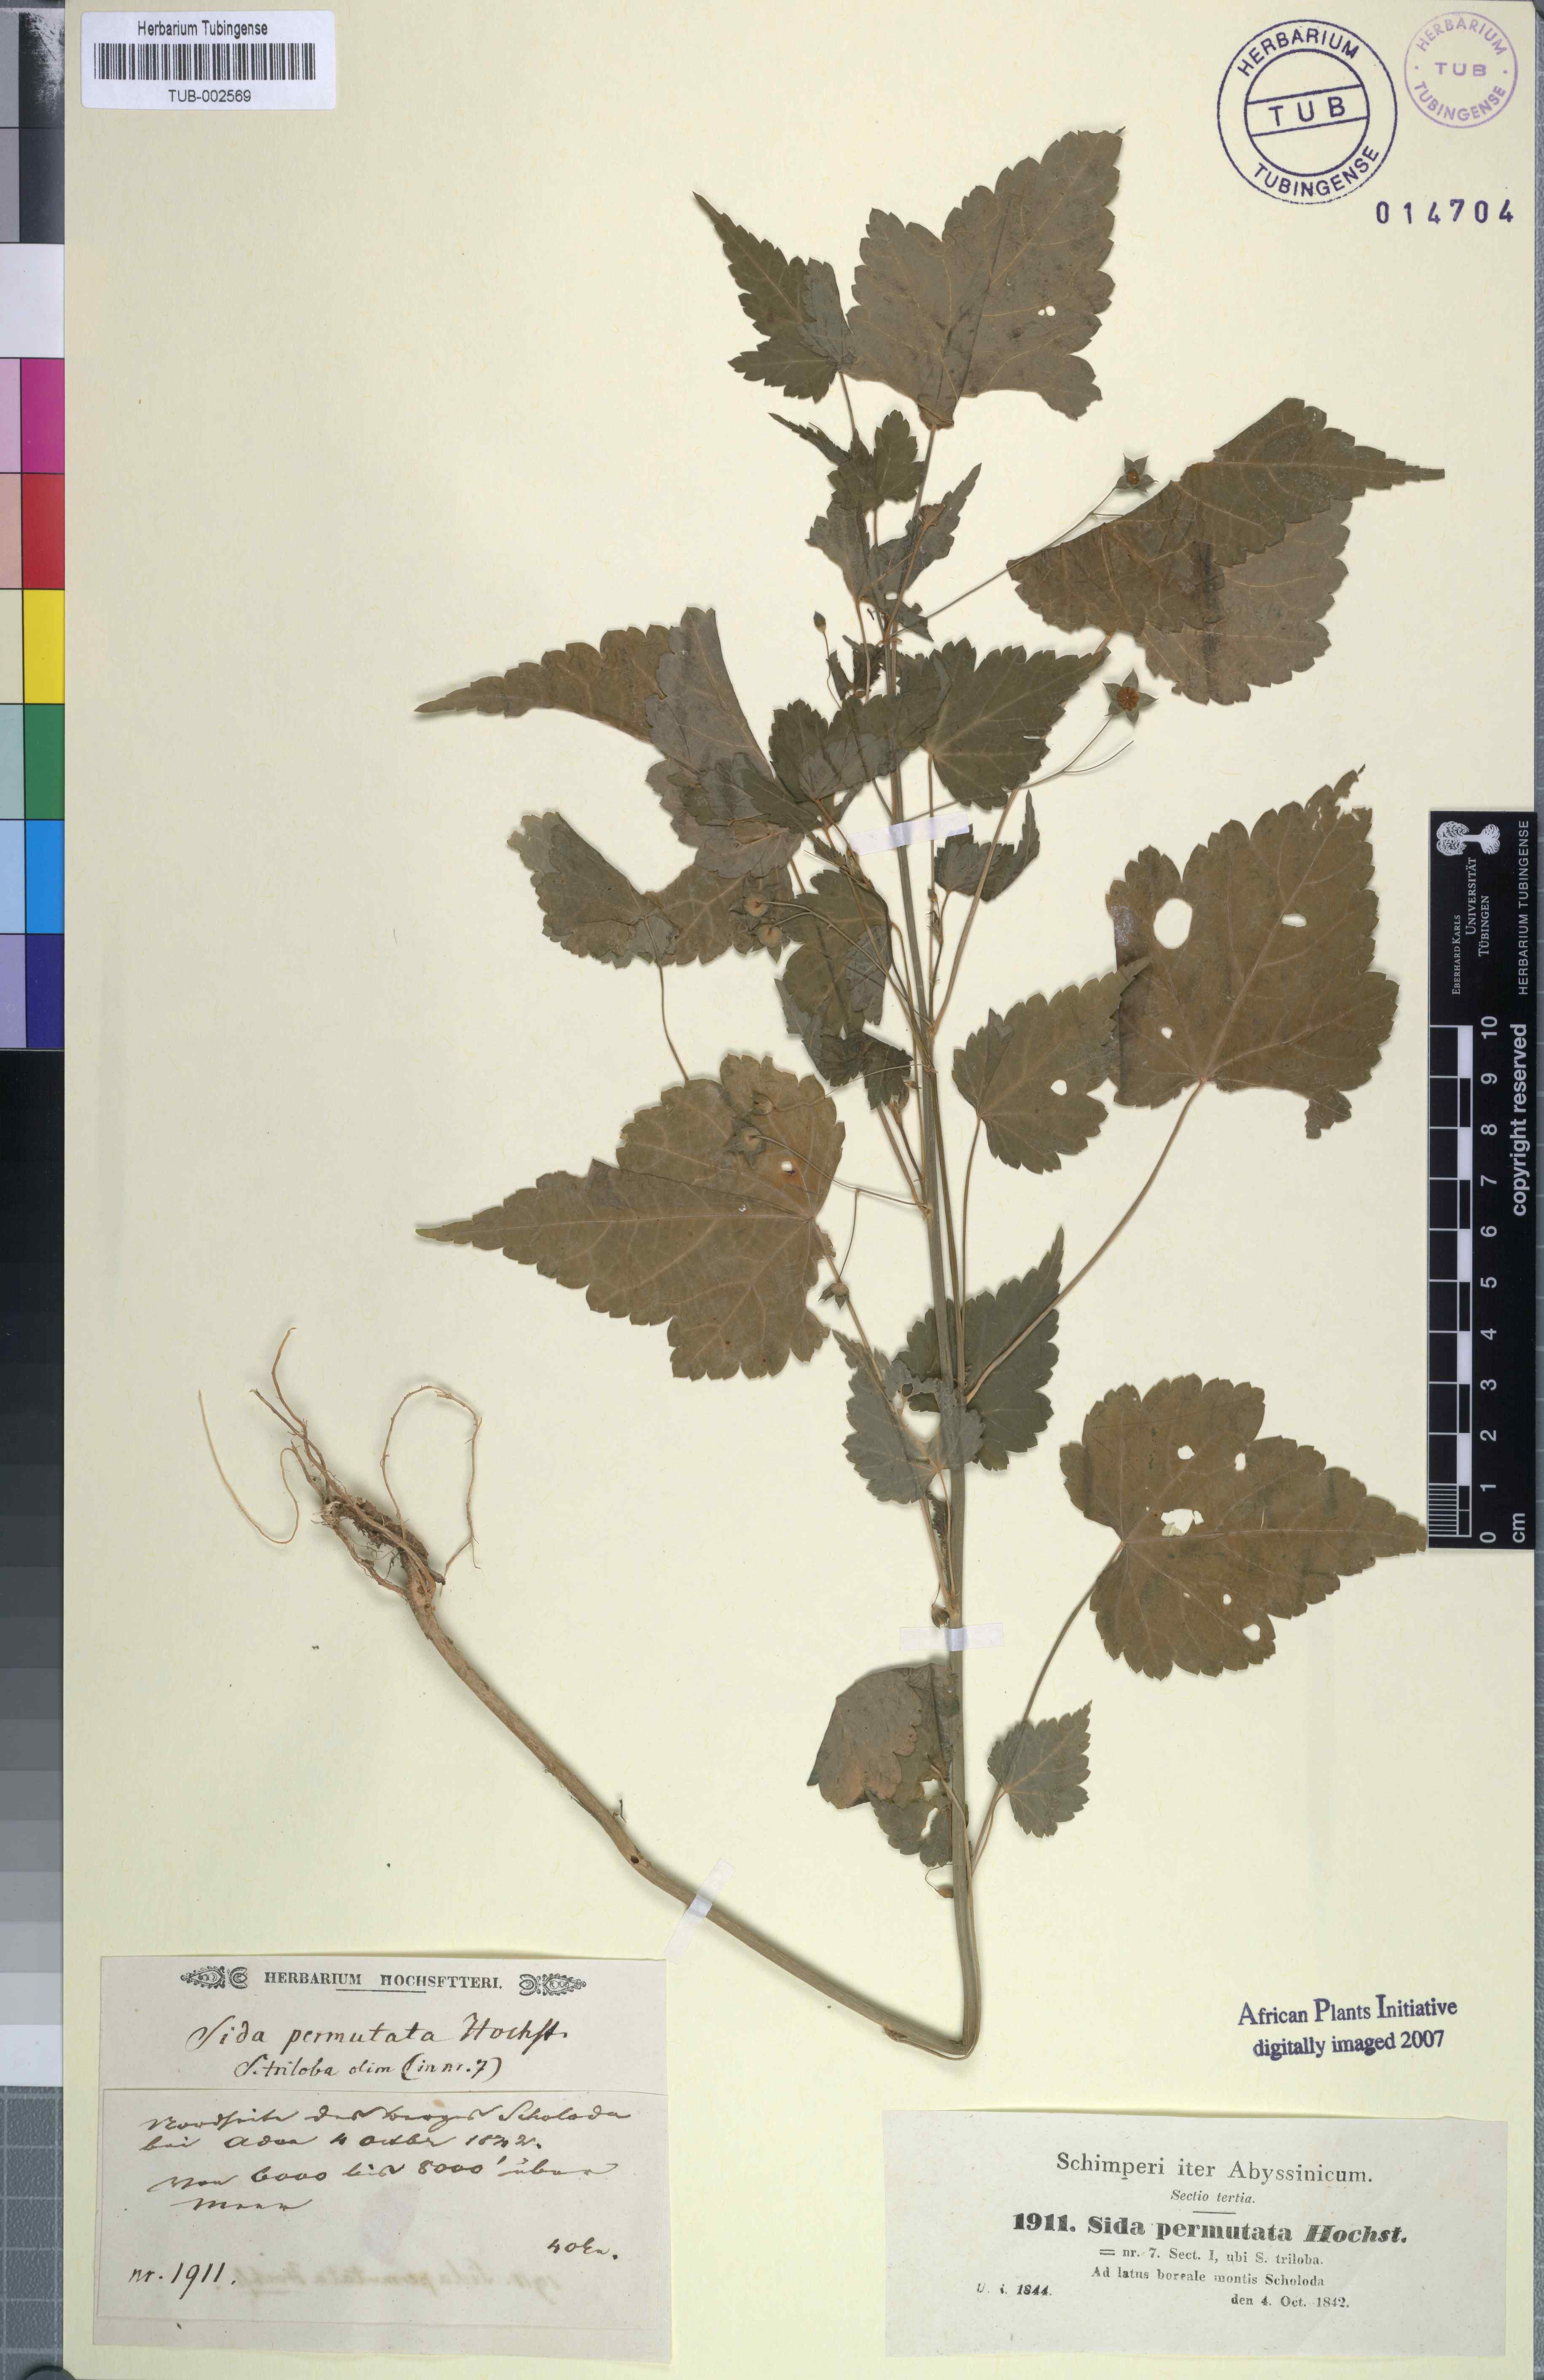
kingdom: Plantae
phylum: Tracheophyta
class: Magnoliopsida
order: Malvales
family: Malvaceae
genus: Sida
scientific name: Sida ternata
